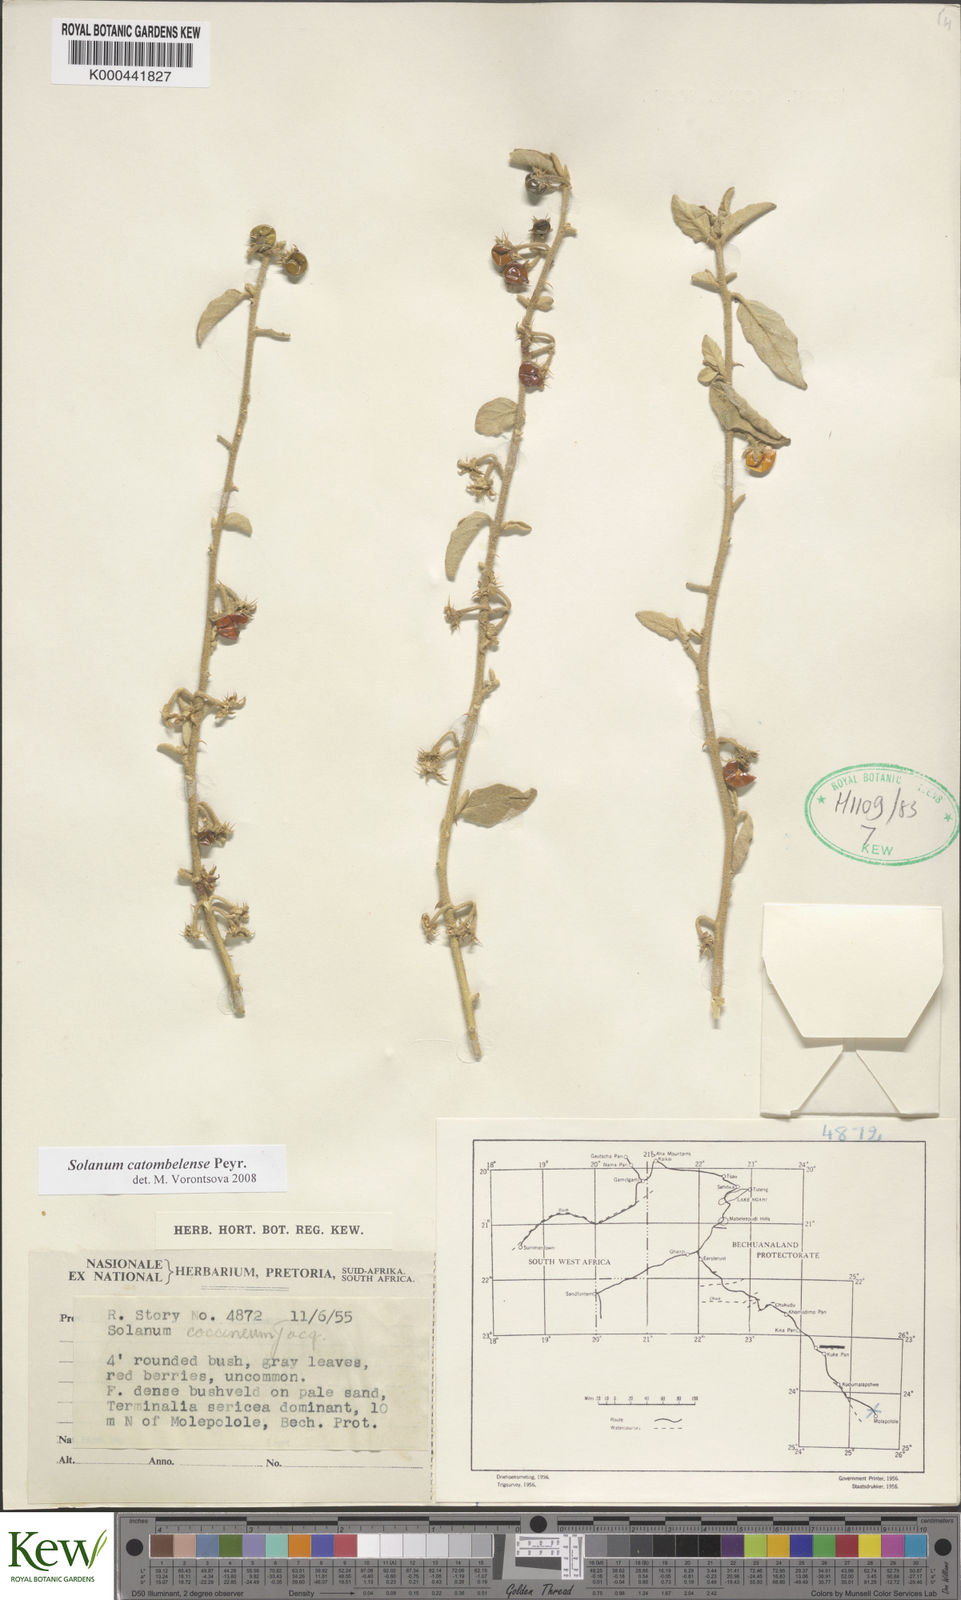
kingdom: Plantae
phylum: Tracheophyta
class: Magnoliopsida
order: Solanales
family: Solanaceae
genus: Solanum
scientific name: Solanum catombelense
